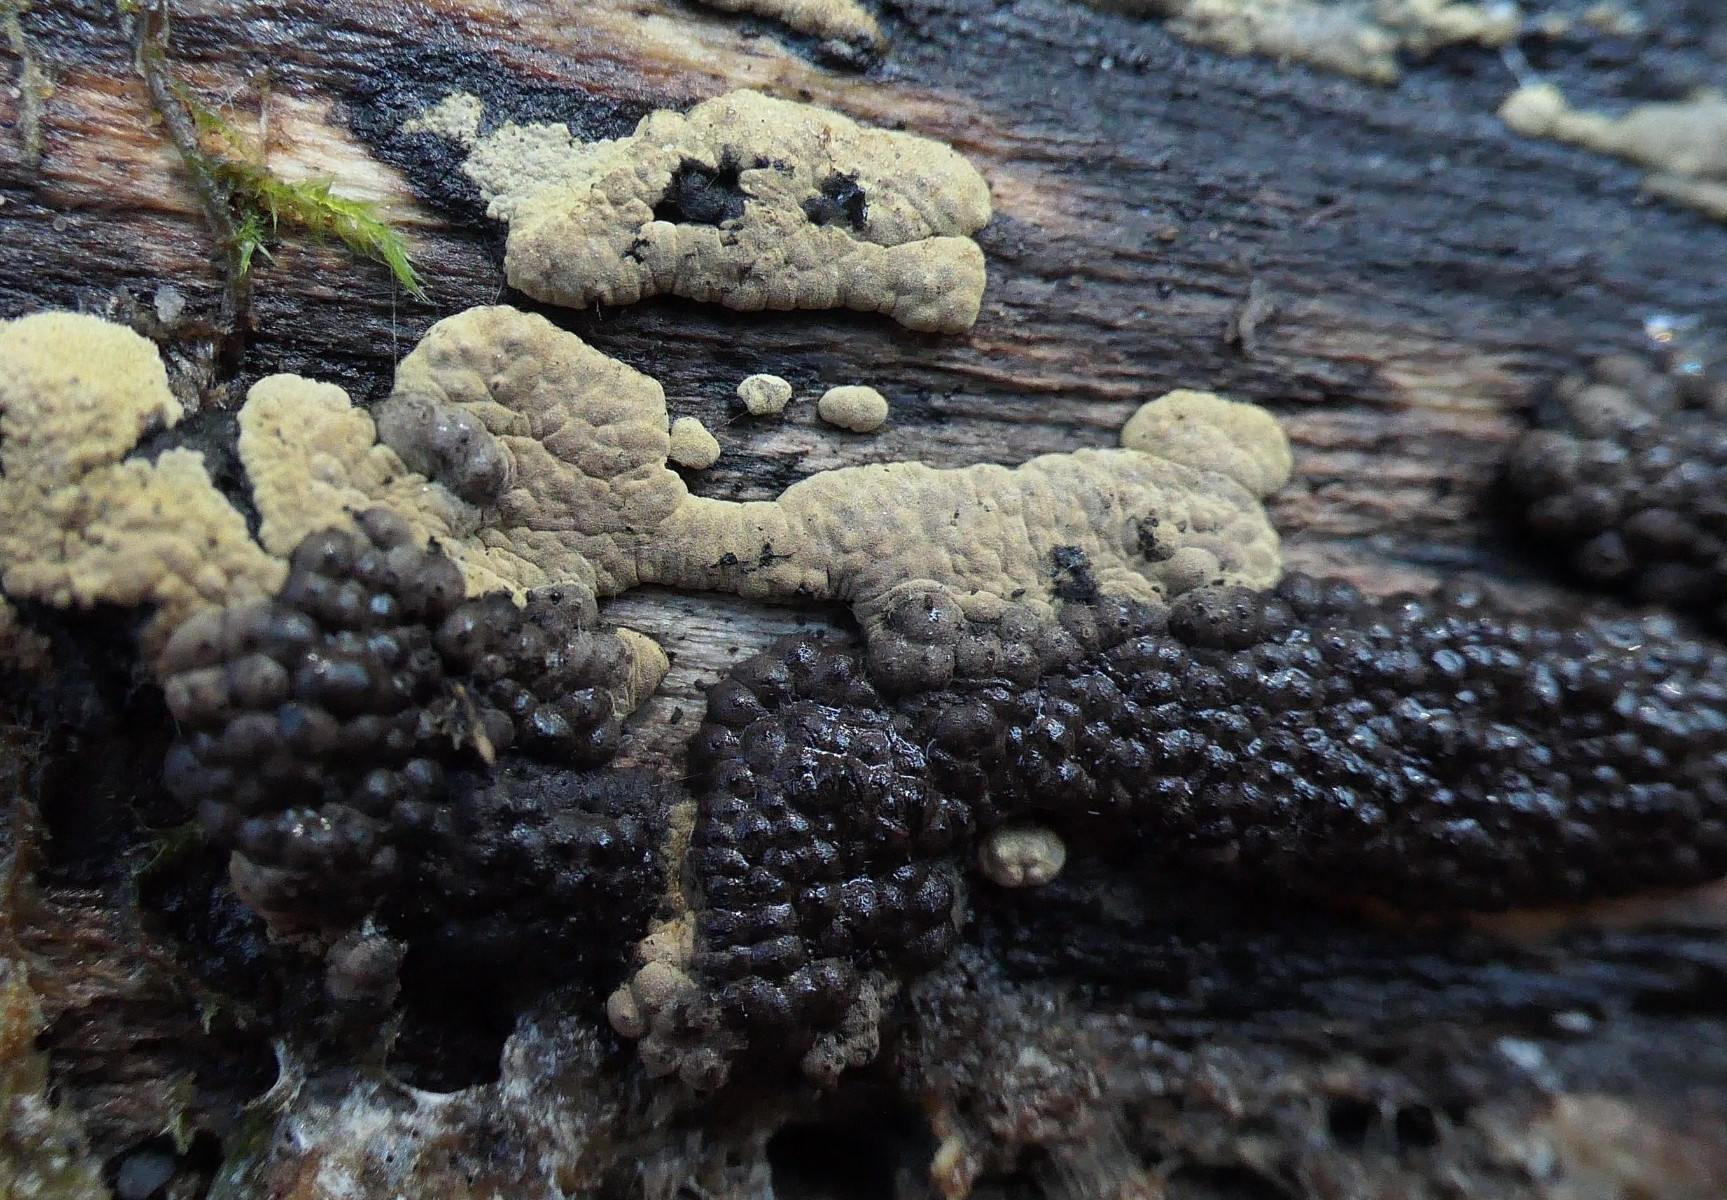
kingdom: Fungi
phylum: Ascomycota
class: Sordariomycetes
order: Xylariales
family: Hypoxylaceae
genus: Jackrogersella
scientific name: Jackrogersella multiformis
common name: foranderlig kulbær
